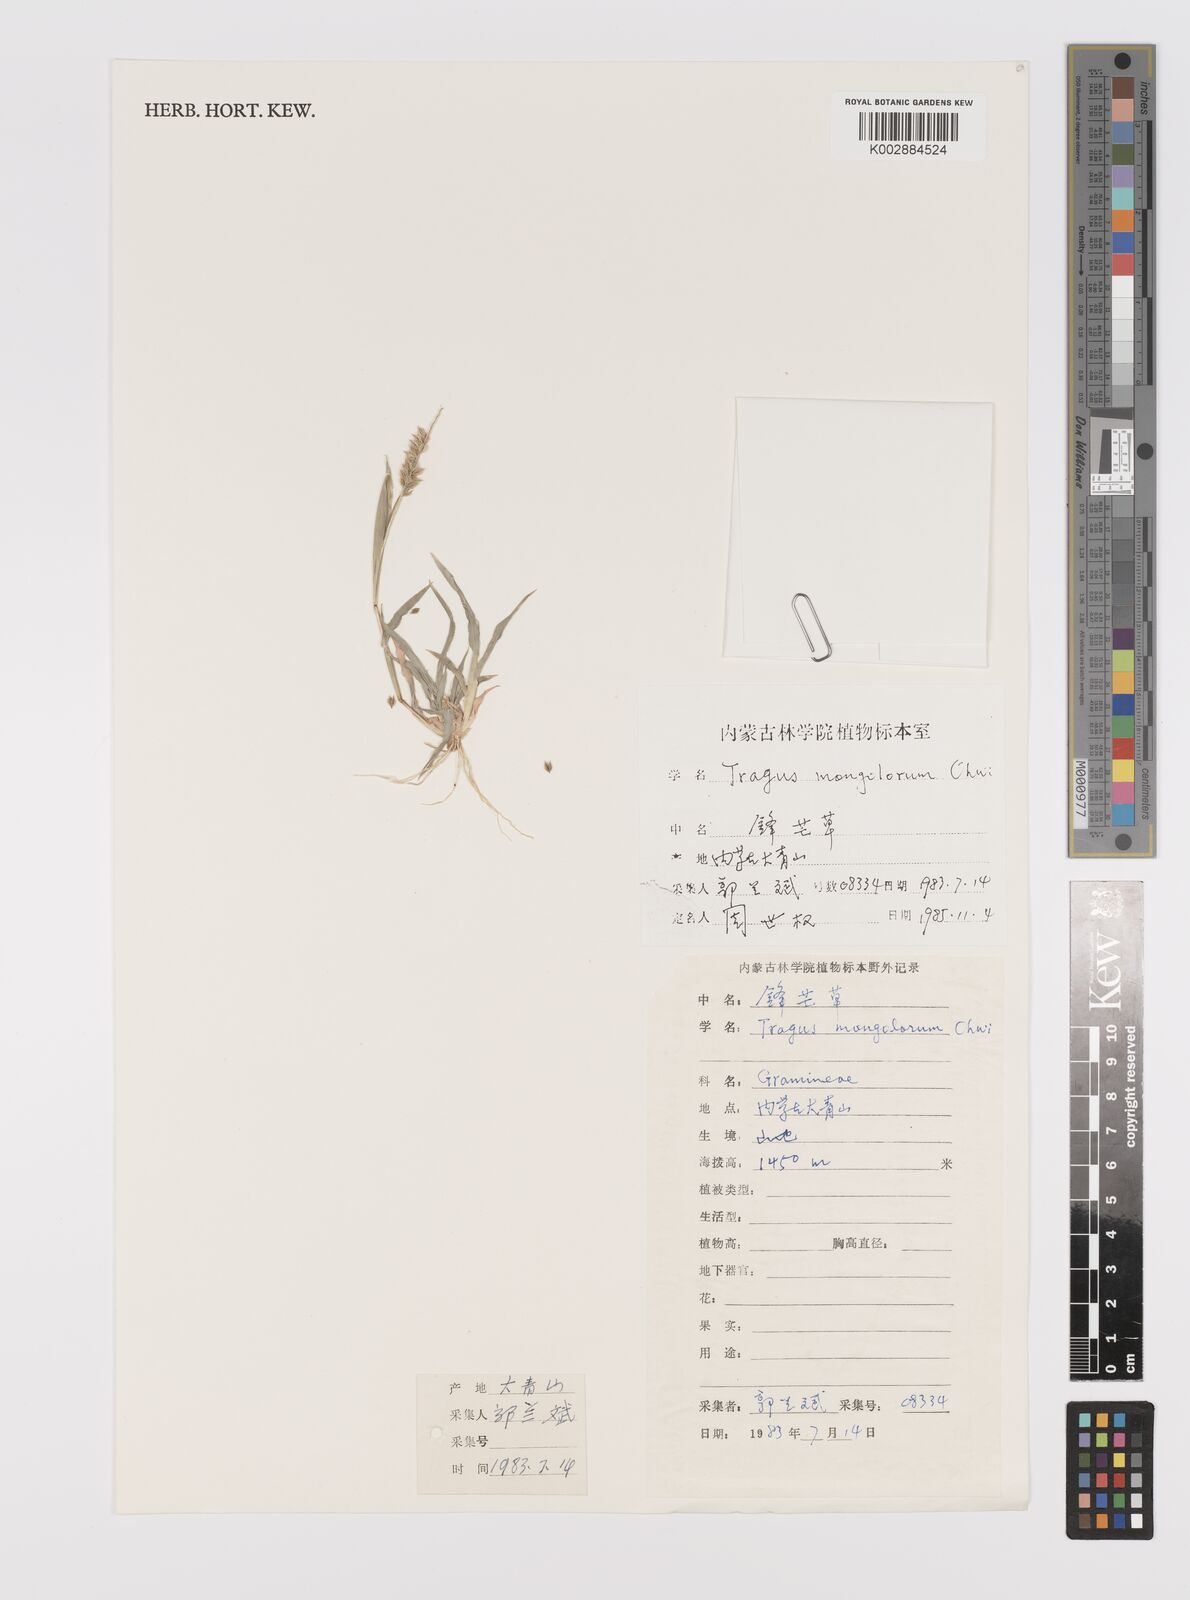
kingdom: Plantae
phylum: Tracheophyta
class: Liliopsida
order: Poales
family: Poaceae
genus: Tragus
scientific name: Tragus mongolorum
